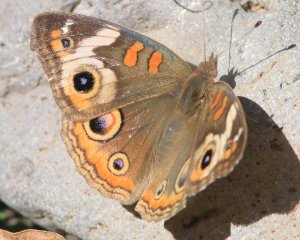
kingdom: Animalia
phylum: Arthropoda
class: Insecta
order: Lepidoptera
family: Nymphalidae
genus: Junonia
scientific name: Junonia coenia
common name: Common Buckeye
